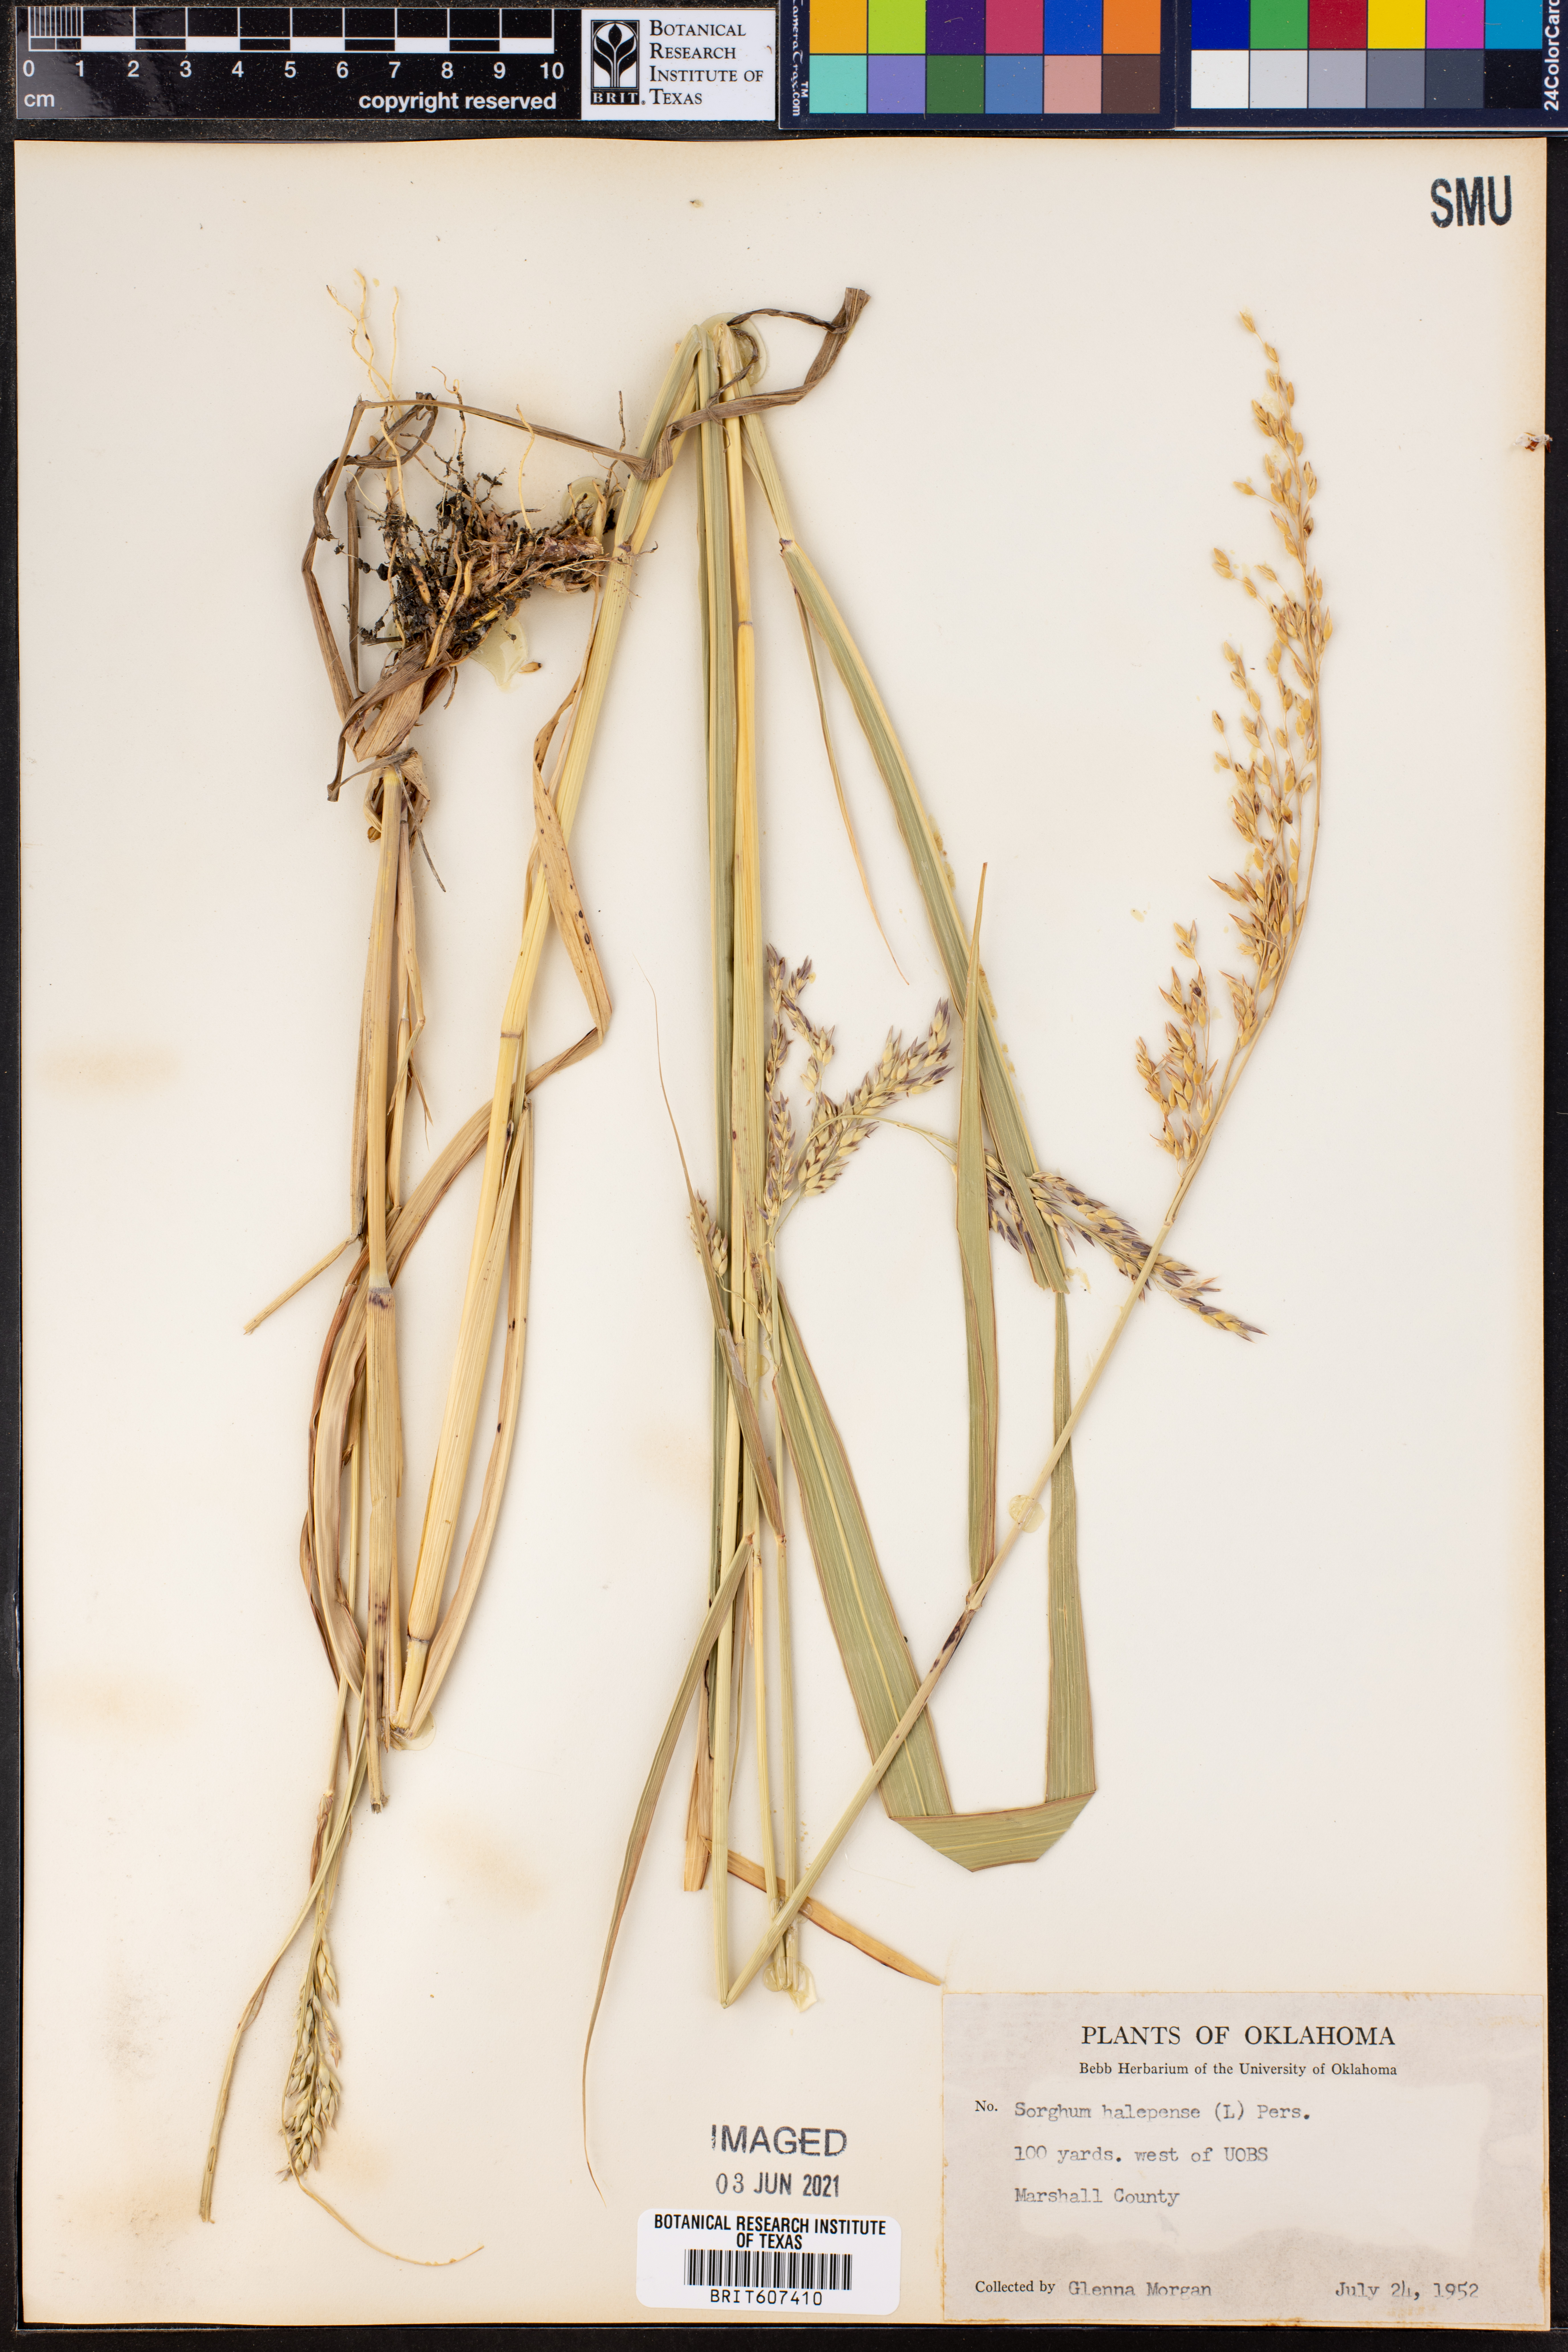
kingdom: Plantae
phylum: Tracheophyta
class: Liliopsida
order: Poales
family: Poaceae
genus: Sorghum
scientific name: Sorghum halepense
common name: Johnson-grass
